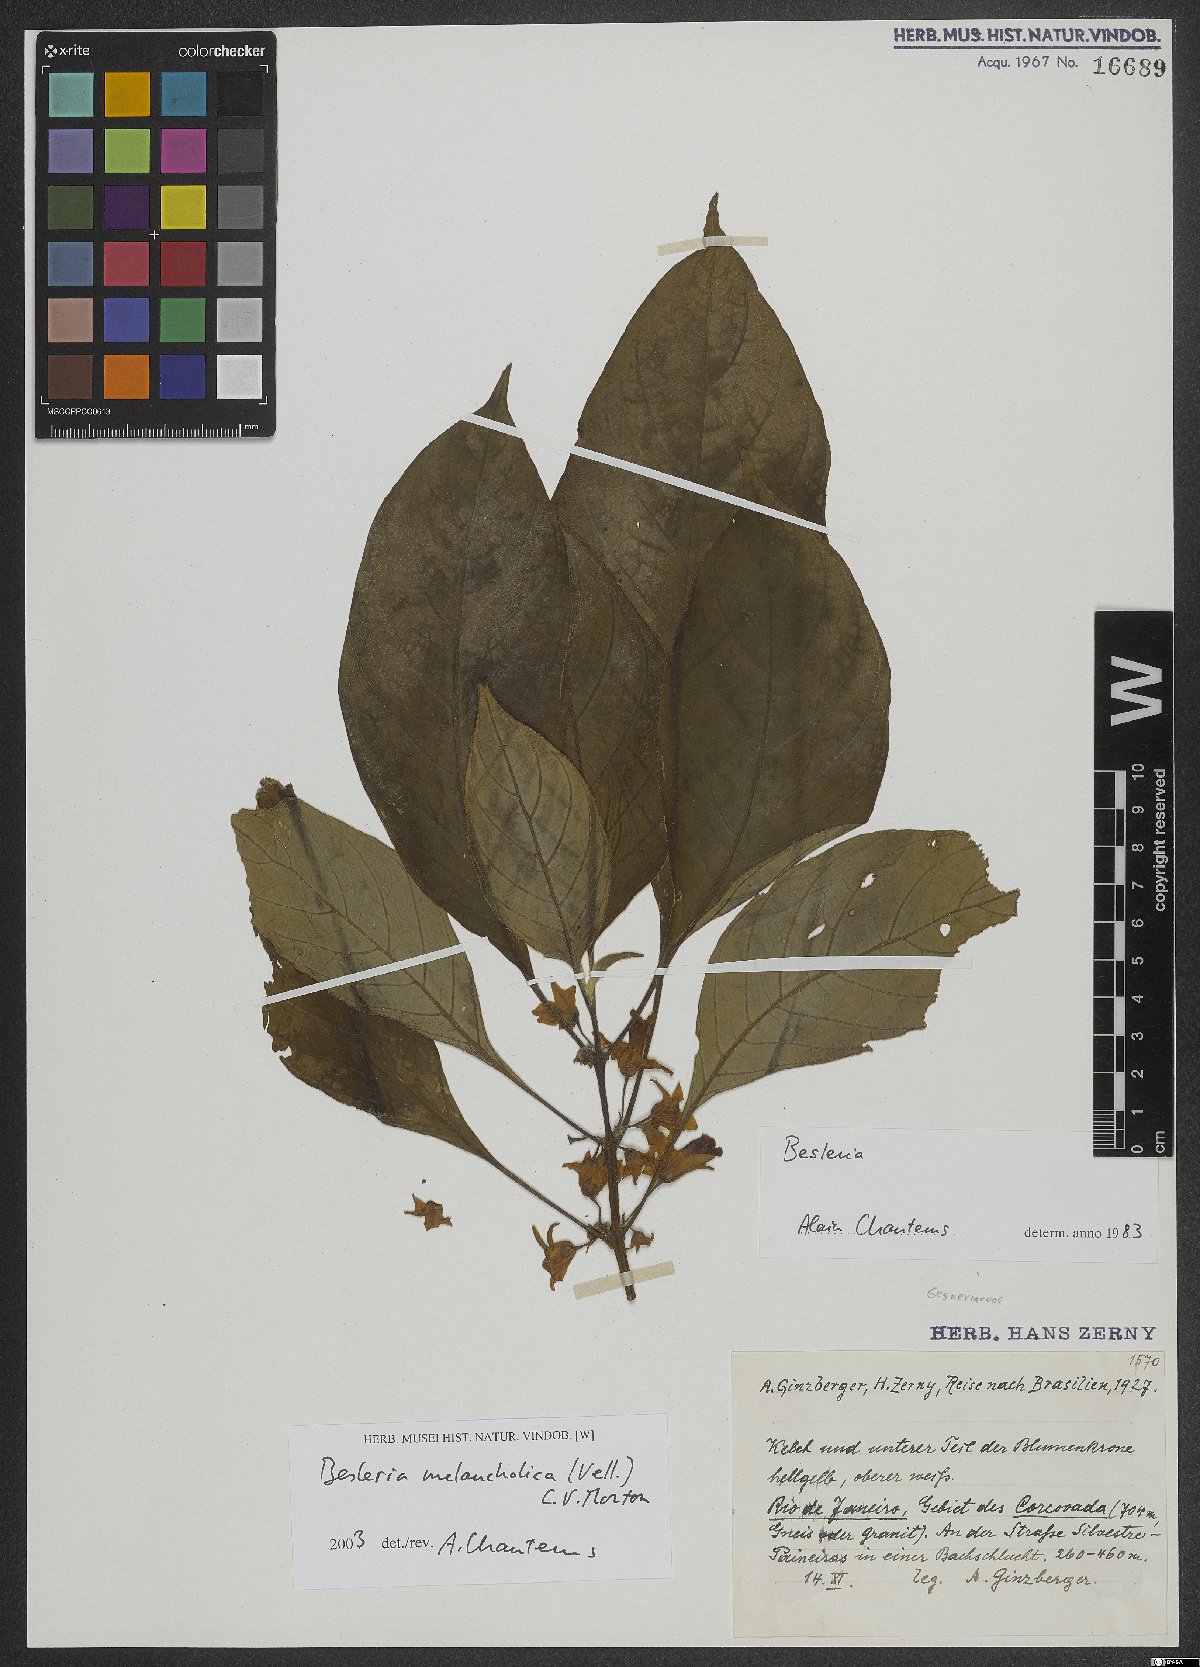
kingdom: Plantae
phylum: Tracheophyta
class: Magnoliopsida
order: Lamiales
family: Gesneriaceae
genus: Besleria
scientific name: Besleria melancholica
